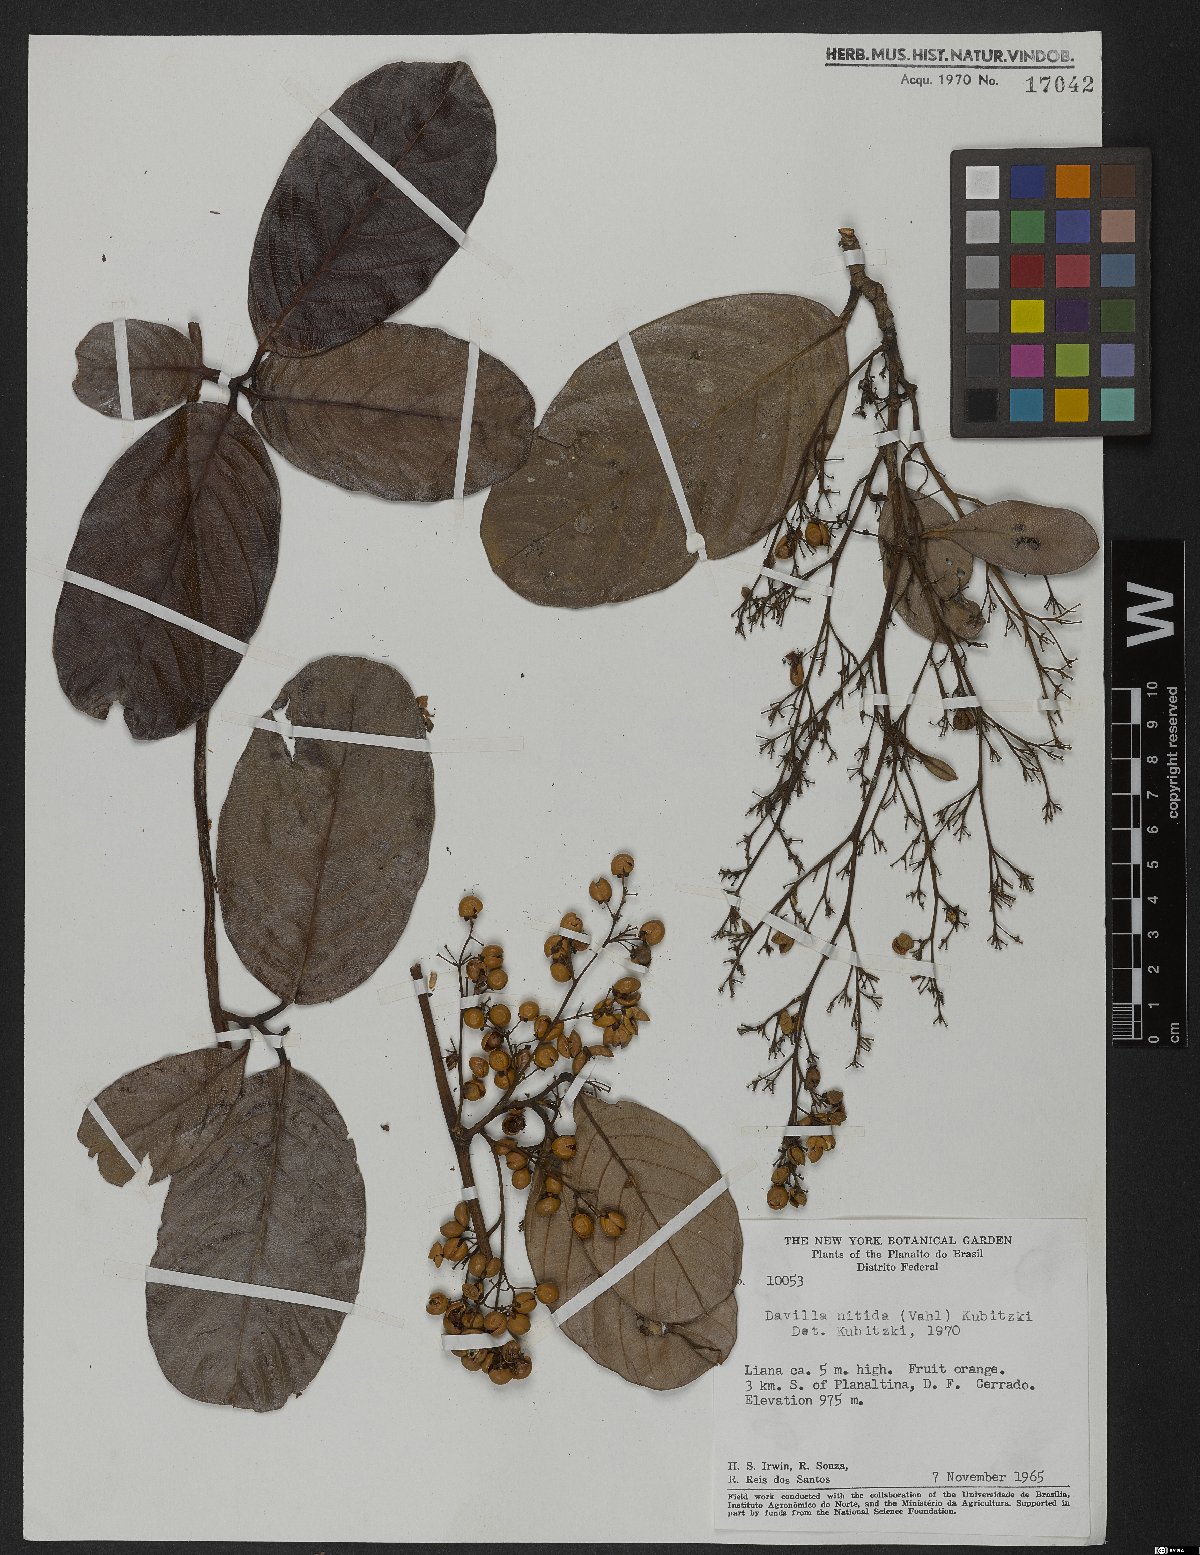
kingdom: Plantae
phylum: Tracheophyta
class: Magnoliopsida
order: Dilleniales
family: Dilleniaceae
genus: Davilla
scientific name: Davilla nitida
